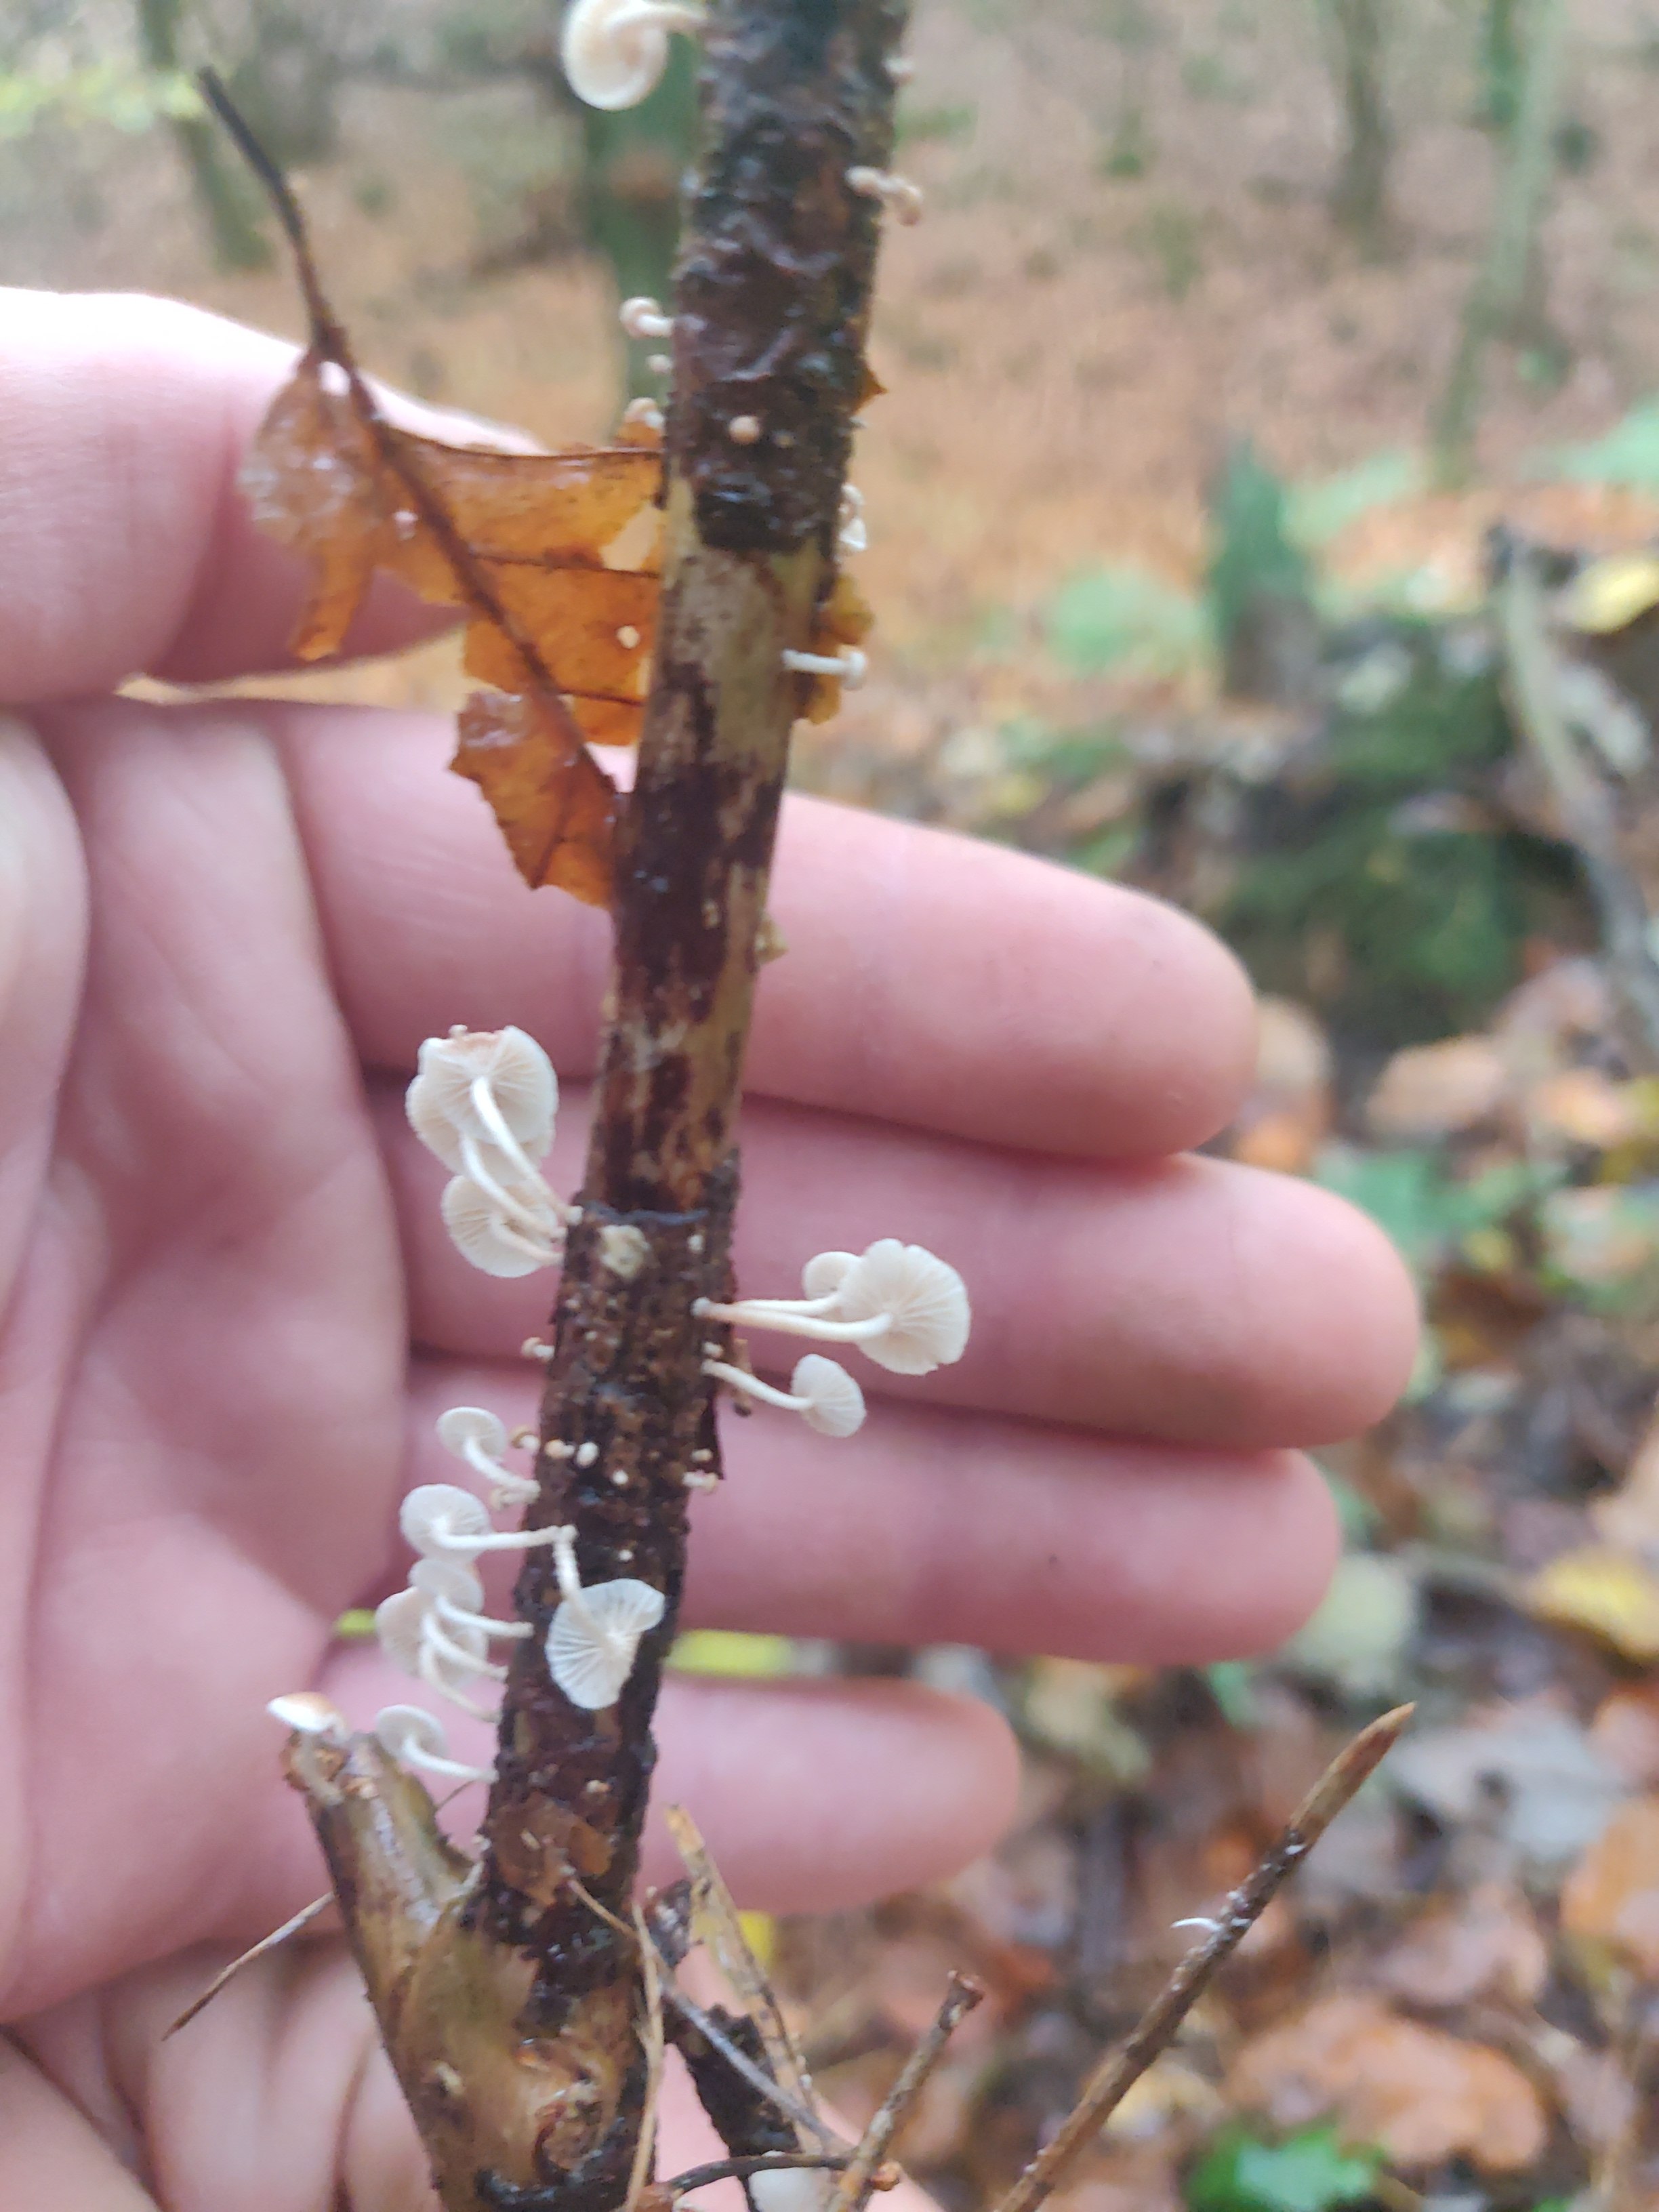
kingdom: Fungi
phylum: Basidiomycota
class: Agaricomycetes
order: Agaricales
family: Omphalotaceae
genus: Collybiopsis
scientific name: Collybiopsis ramealis
